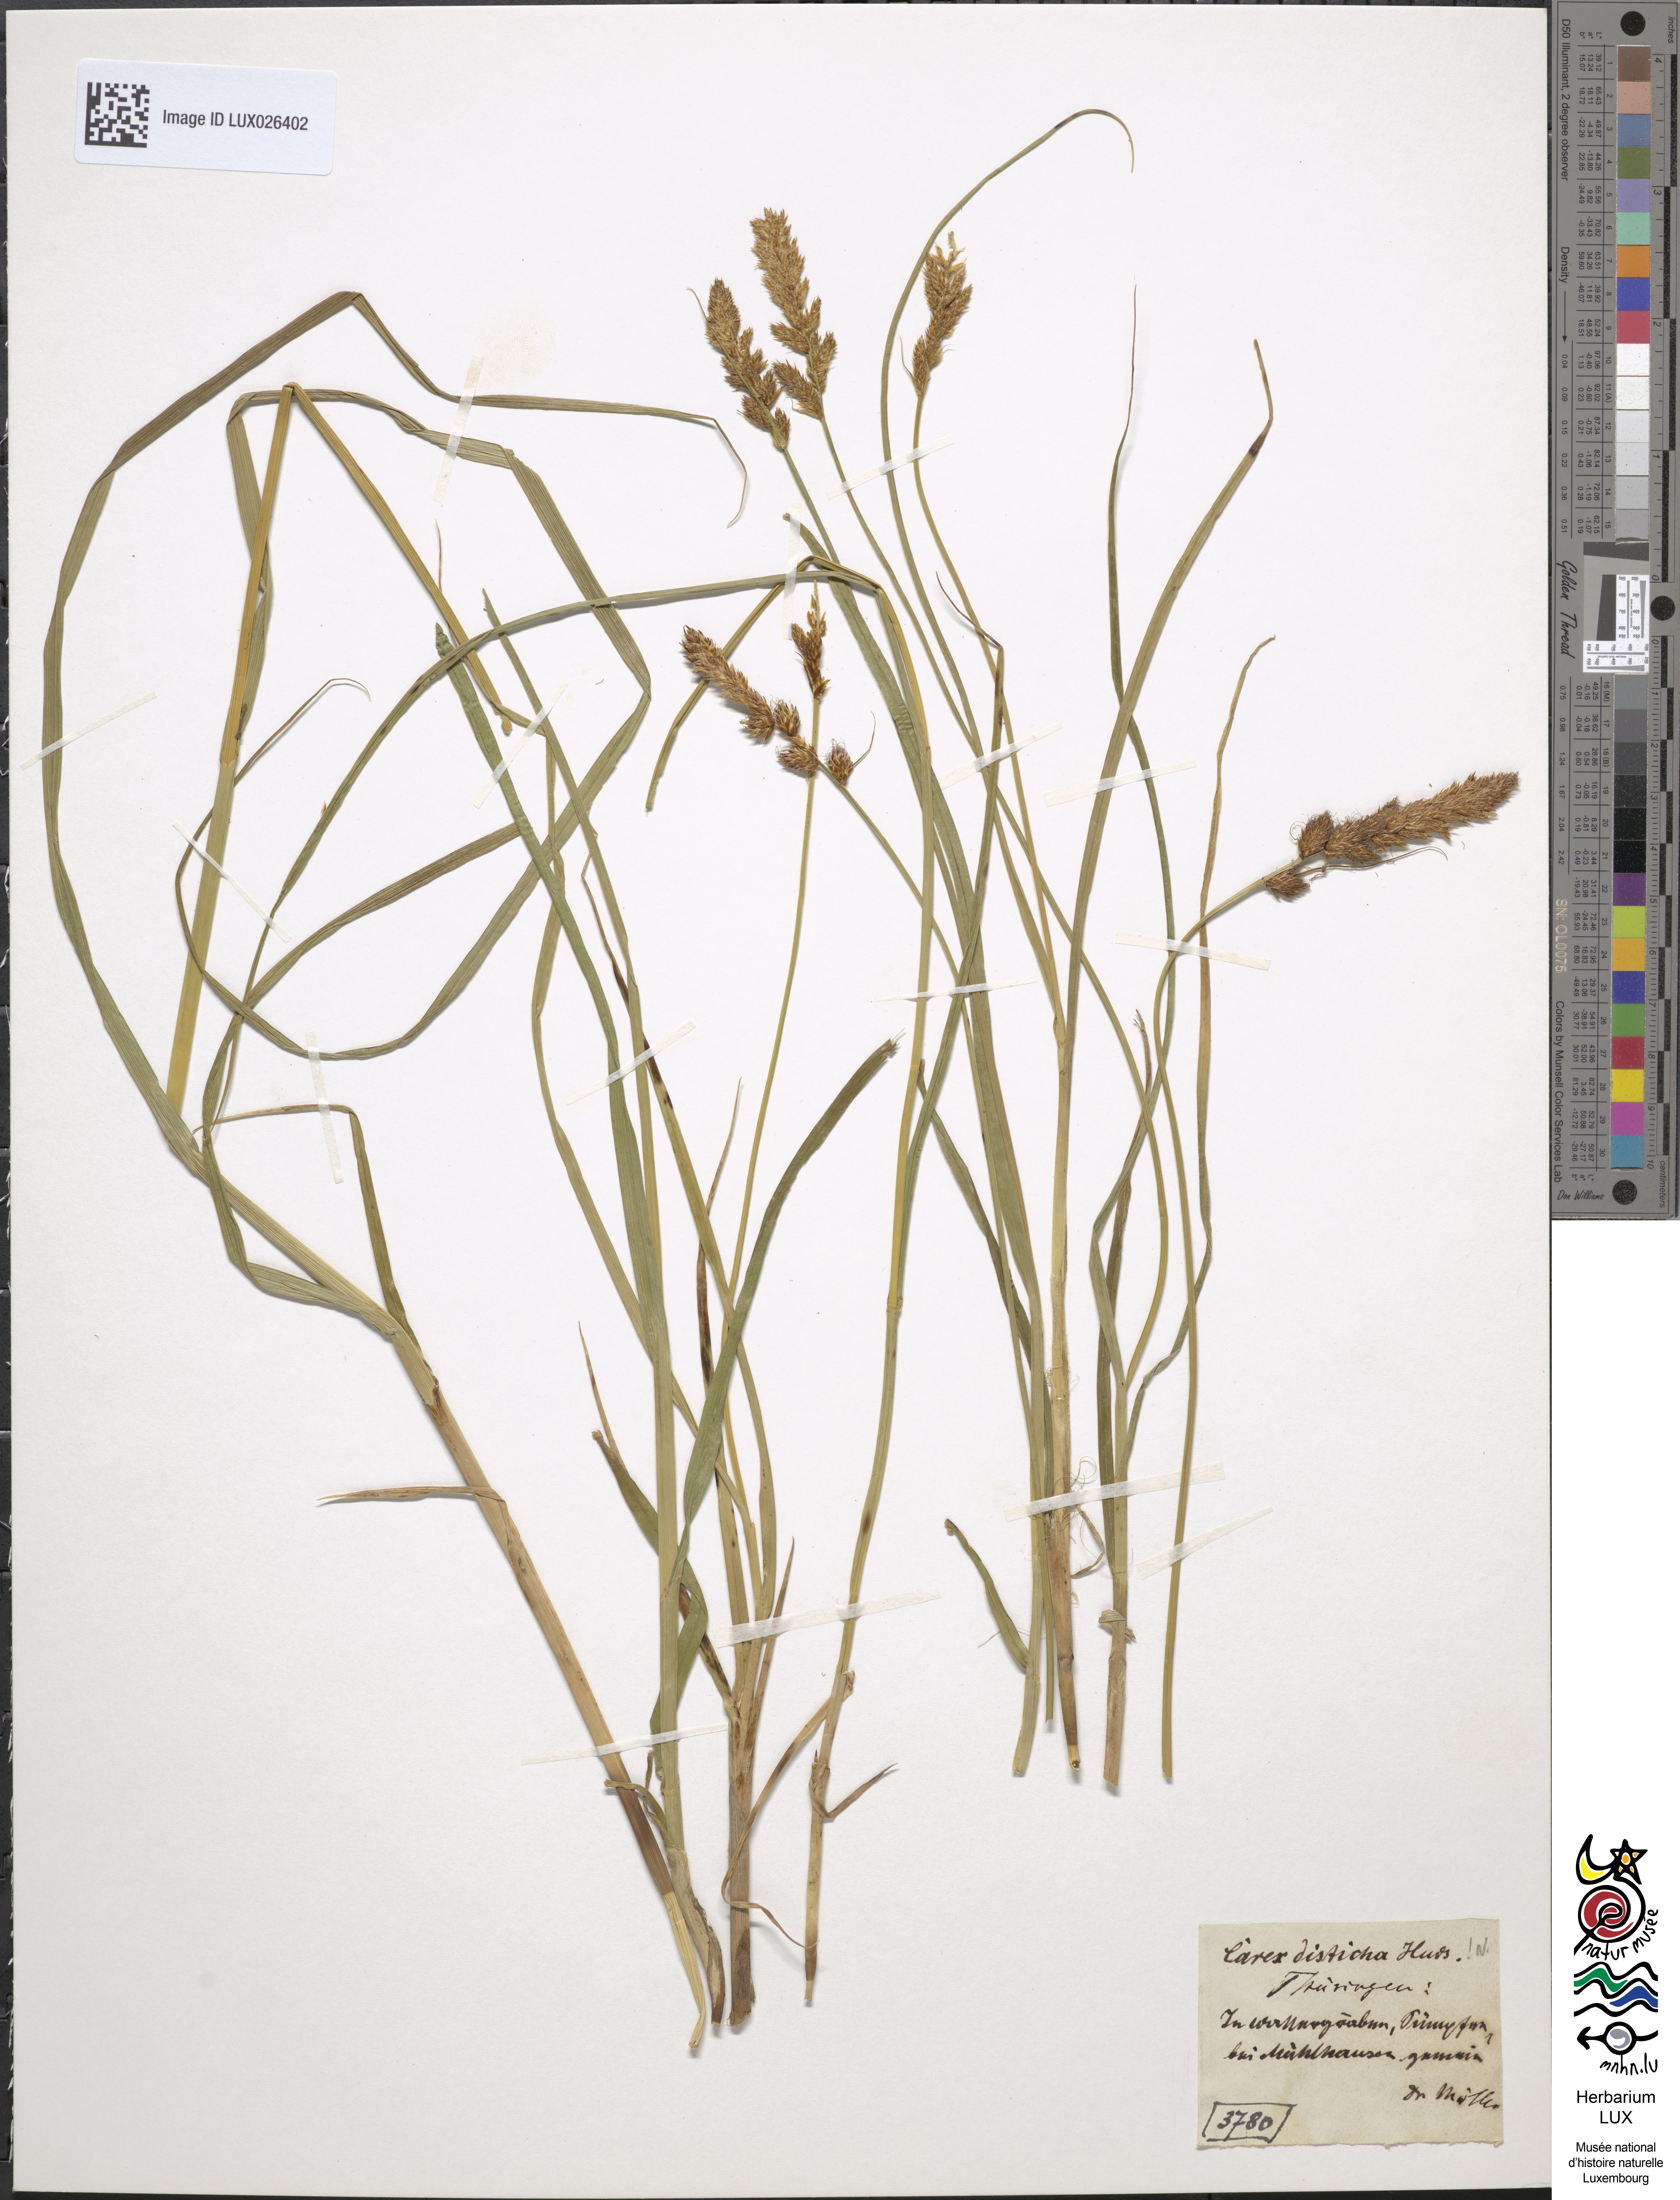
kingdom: Plantae
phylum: Tracheophyta
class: Liliopsida
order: Poales
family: Cyperaceae
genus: Carex
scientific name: Carex disticha
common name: Brown sedge
